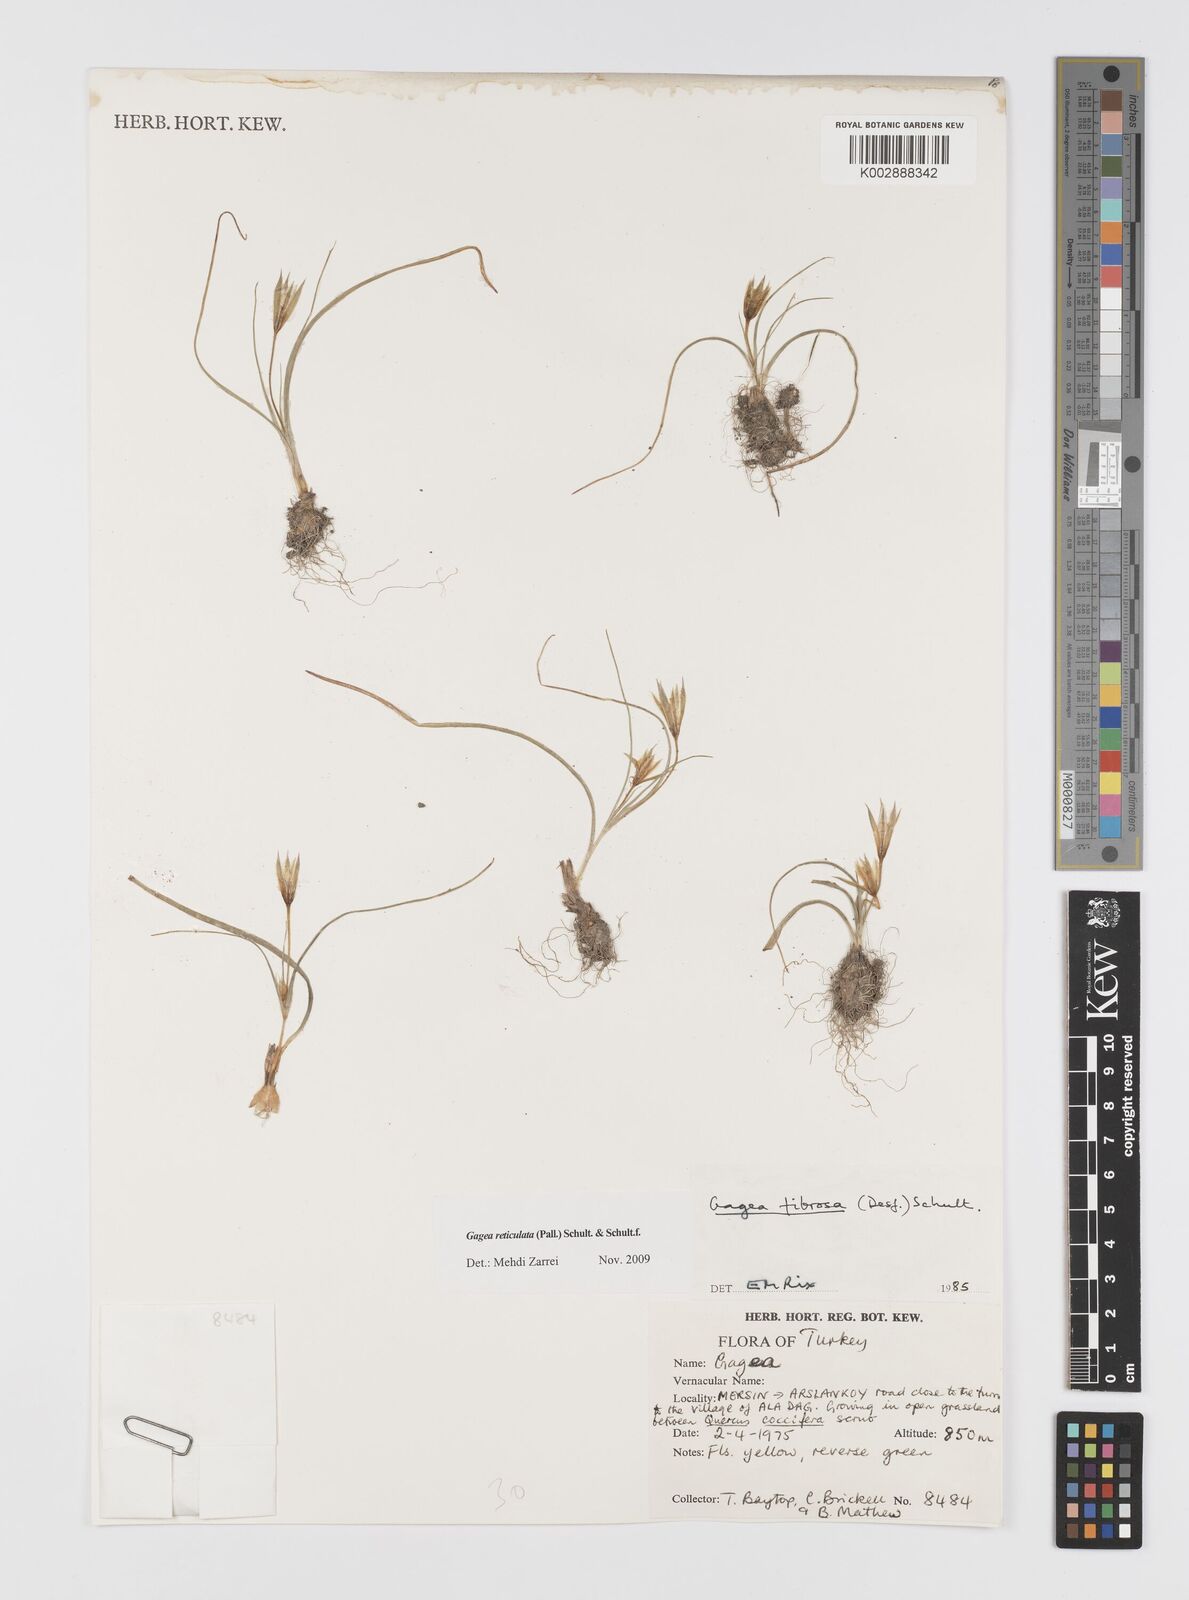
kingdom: Plantae
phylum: Tracheophyta
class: Liliopsida
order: Liliales
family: Liliaceae
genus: Gagea
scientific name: Gagea fibrosa
